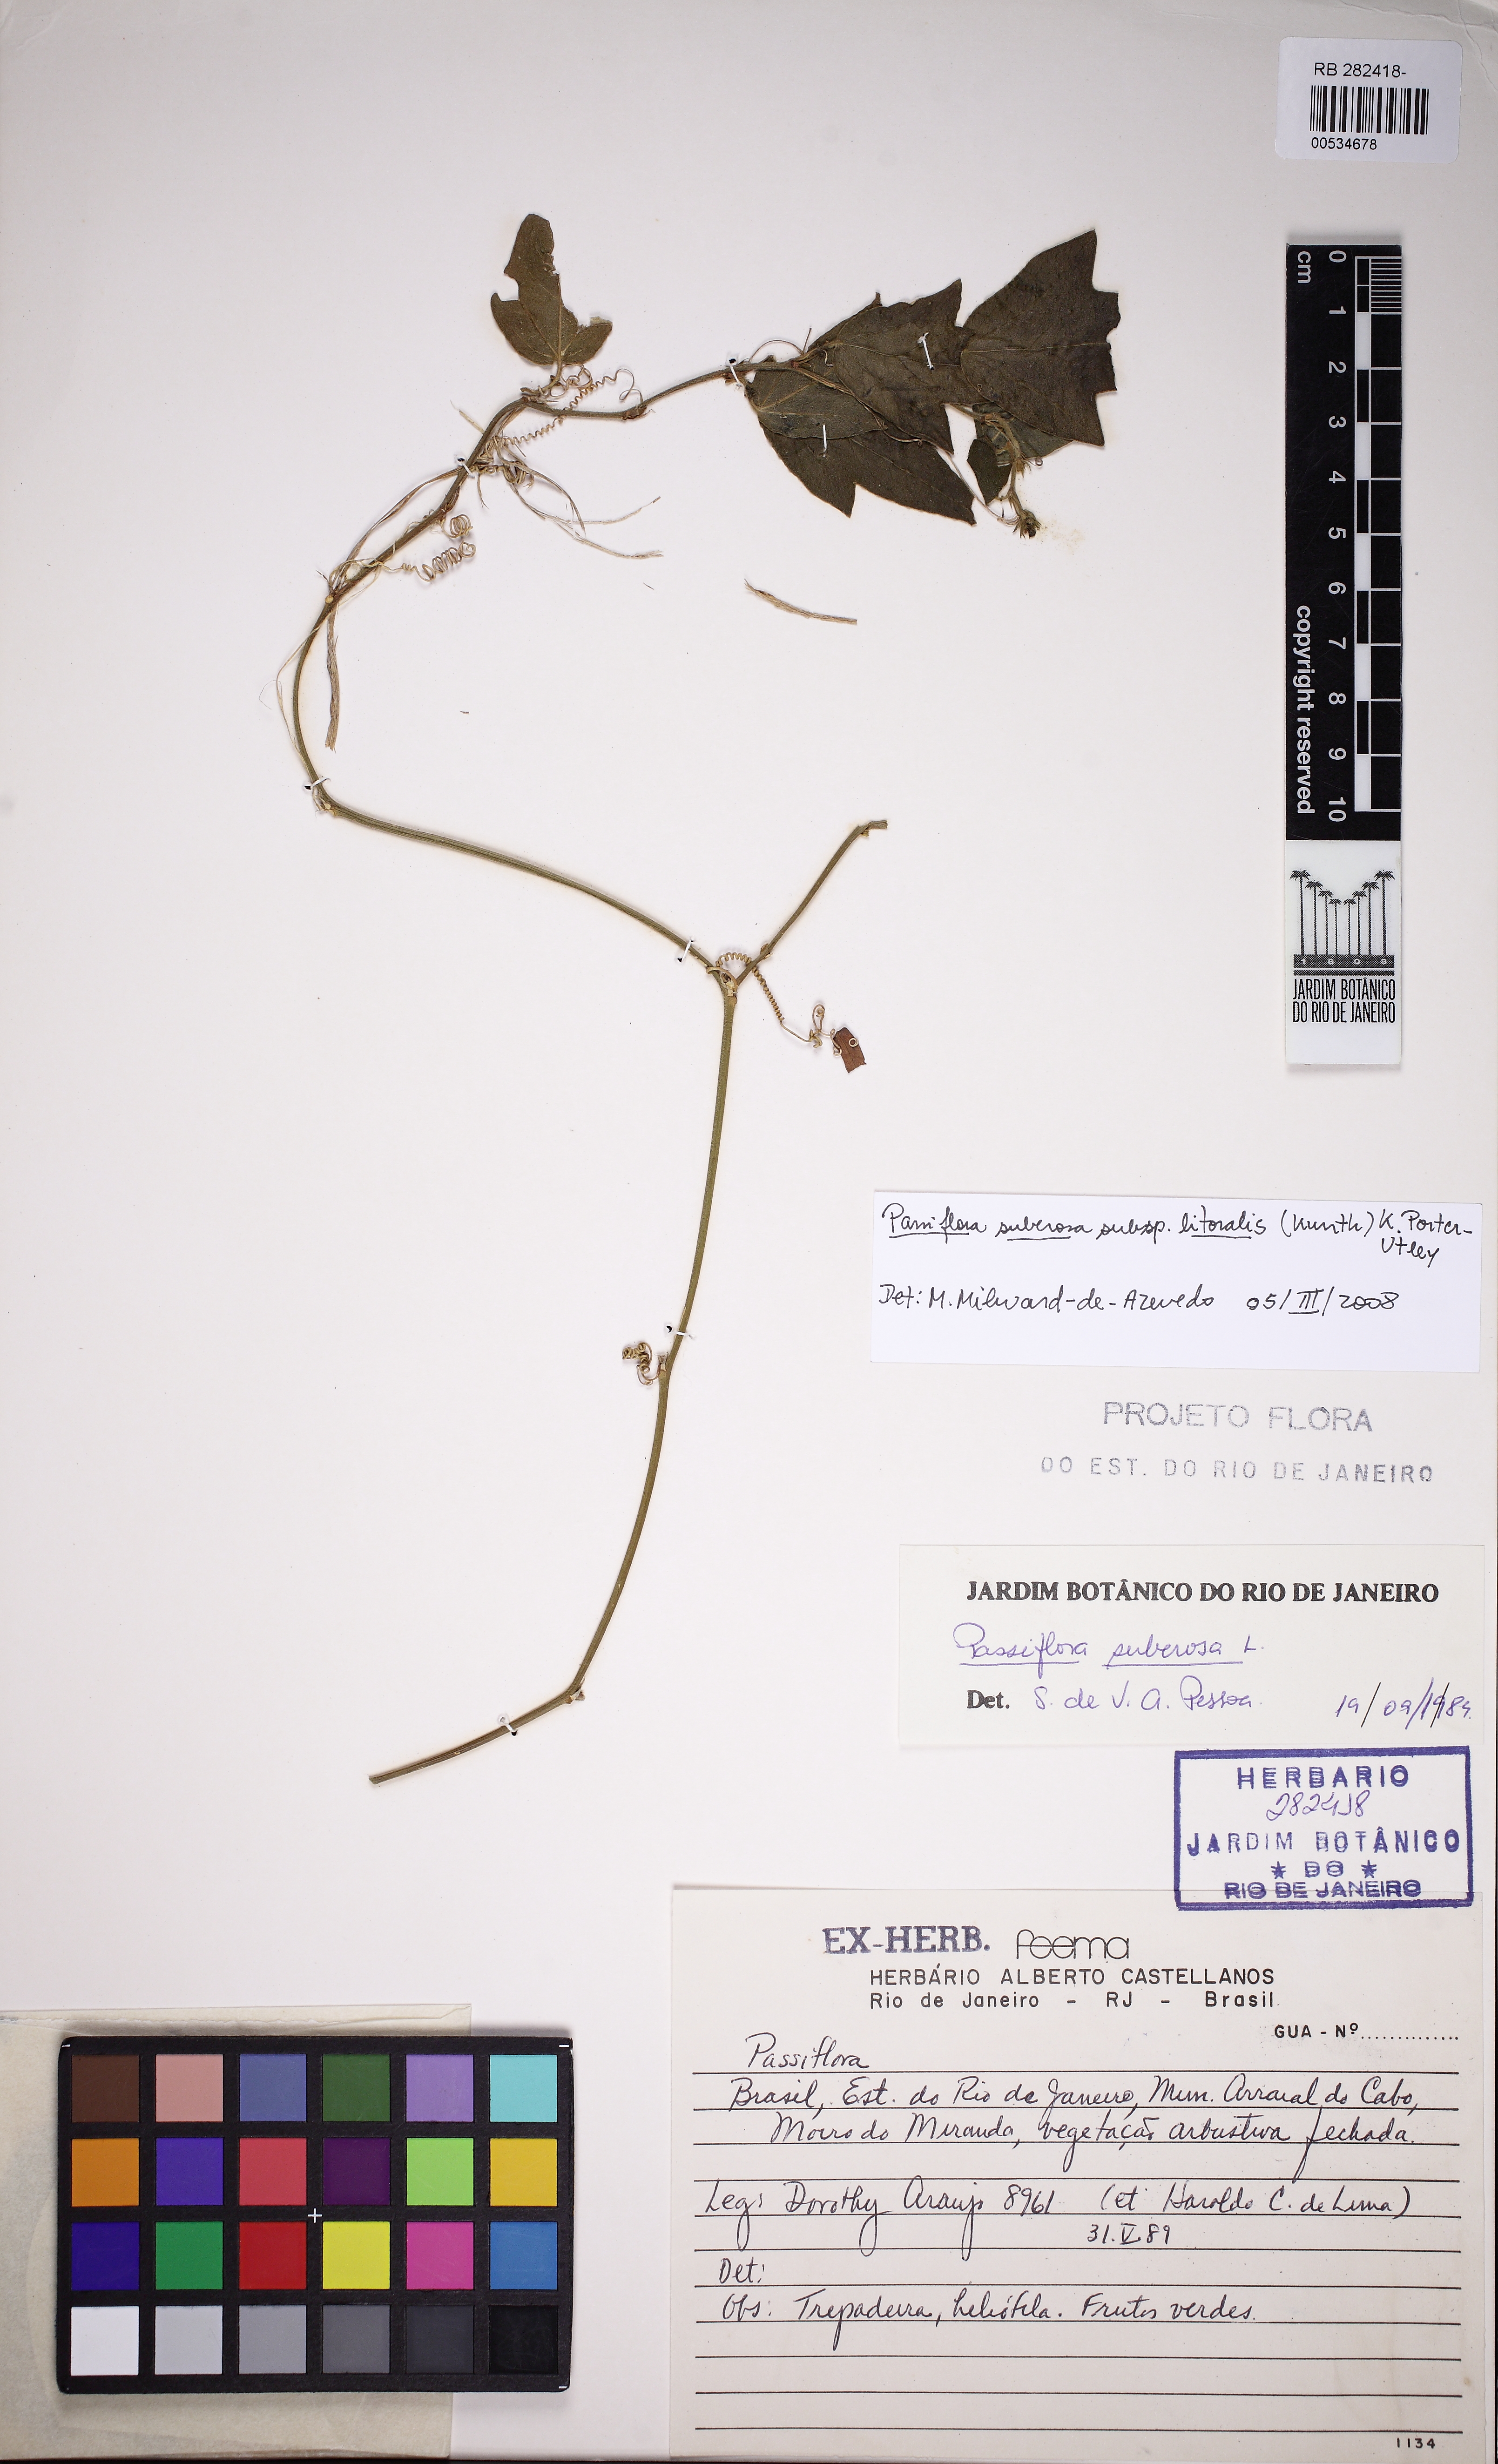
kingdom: Plantae
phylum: Tracheophyta
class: Magnoliopsida
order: Malpighiales
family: Passifloraceae
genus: Passiflora
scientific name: Passiflora suberosa
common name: Wild passionfruit
